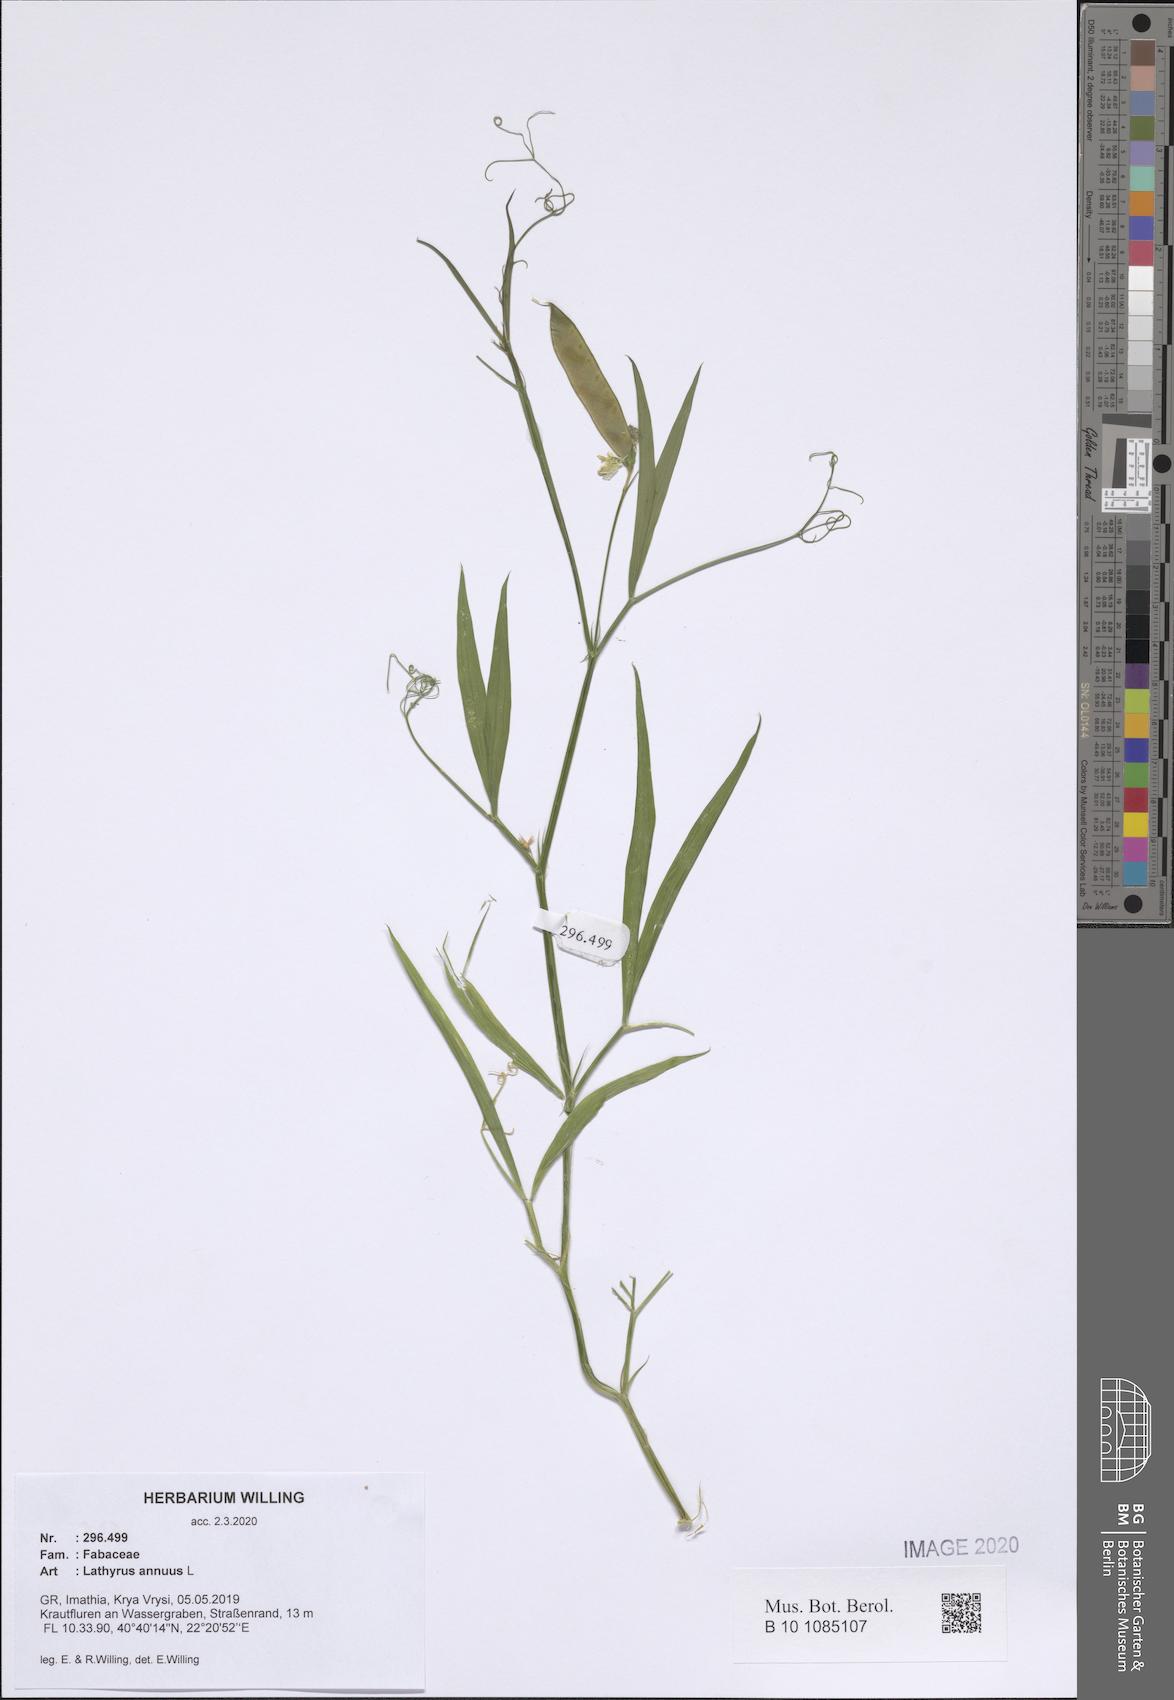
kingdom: Plantae
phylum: Tracheophyta
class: Magnoliopsida
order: Fabales
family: Fabaceae
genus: Lathyrus
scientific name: Lathyrus annuus
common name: Fodder pea
